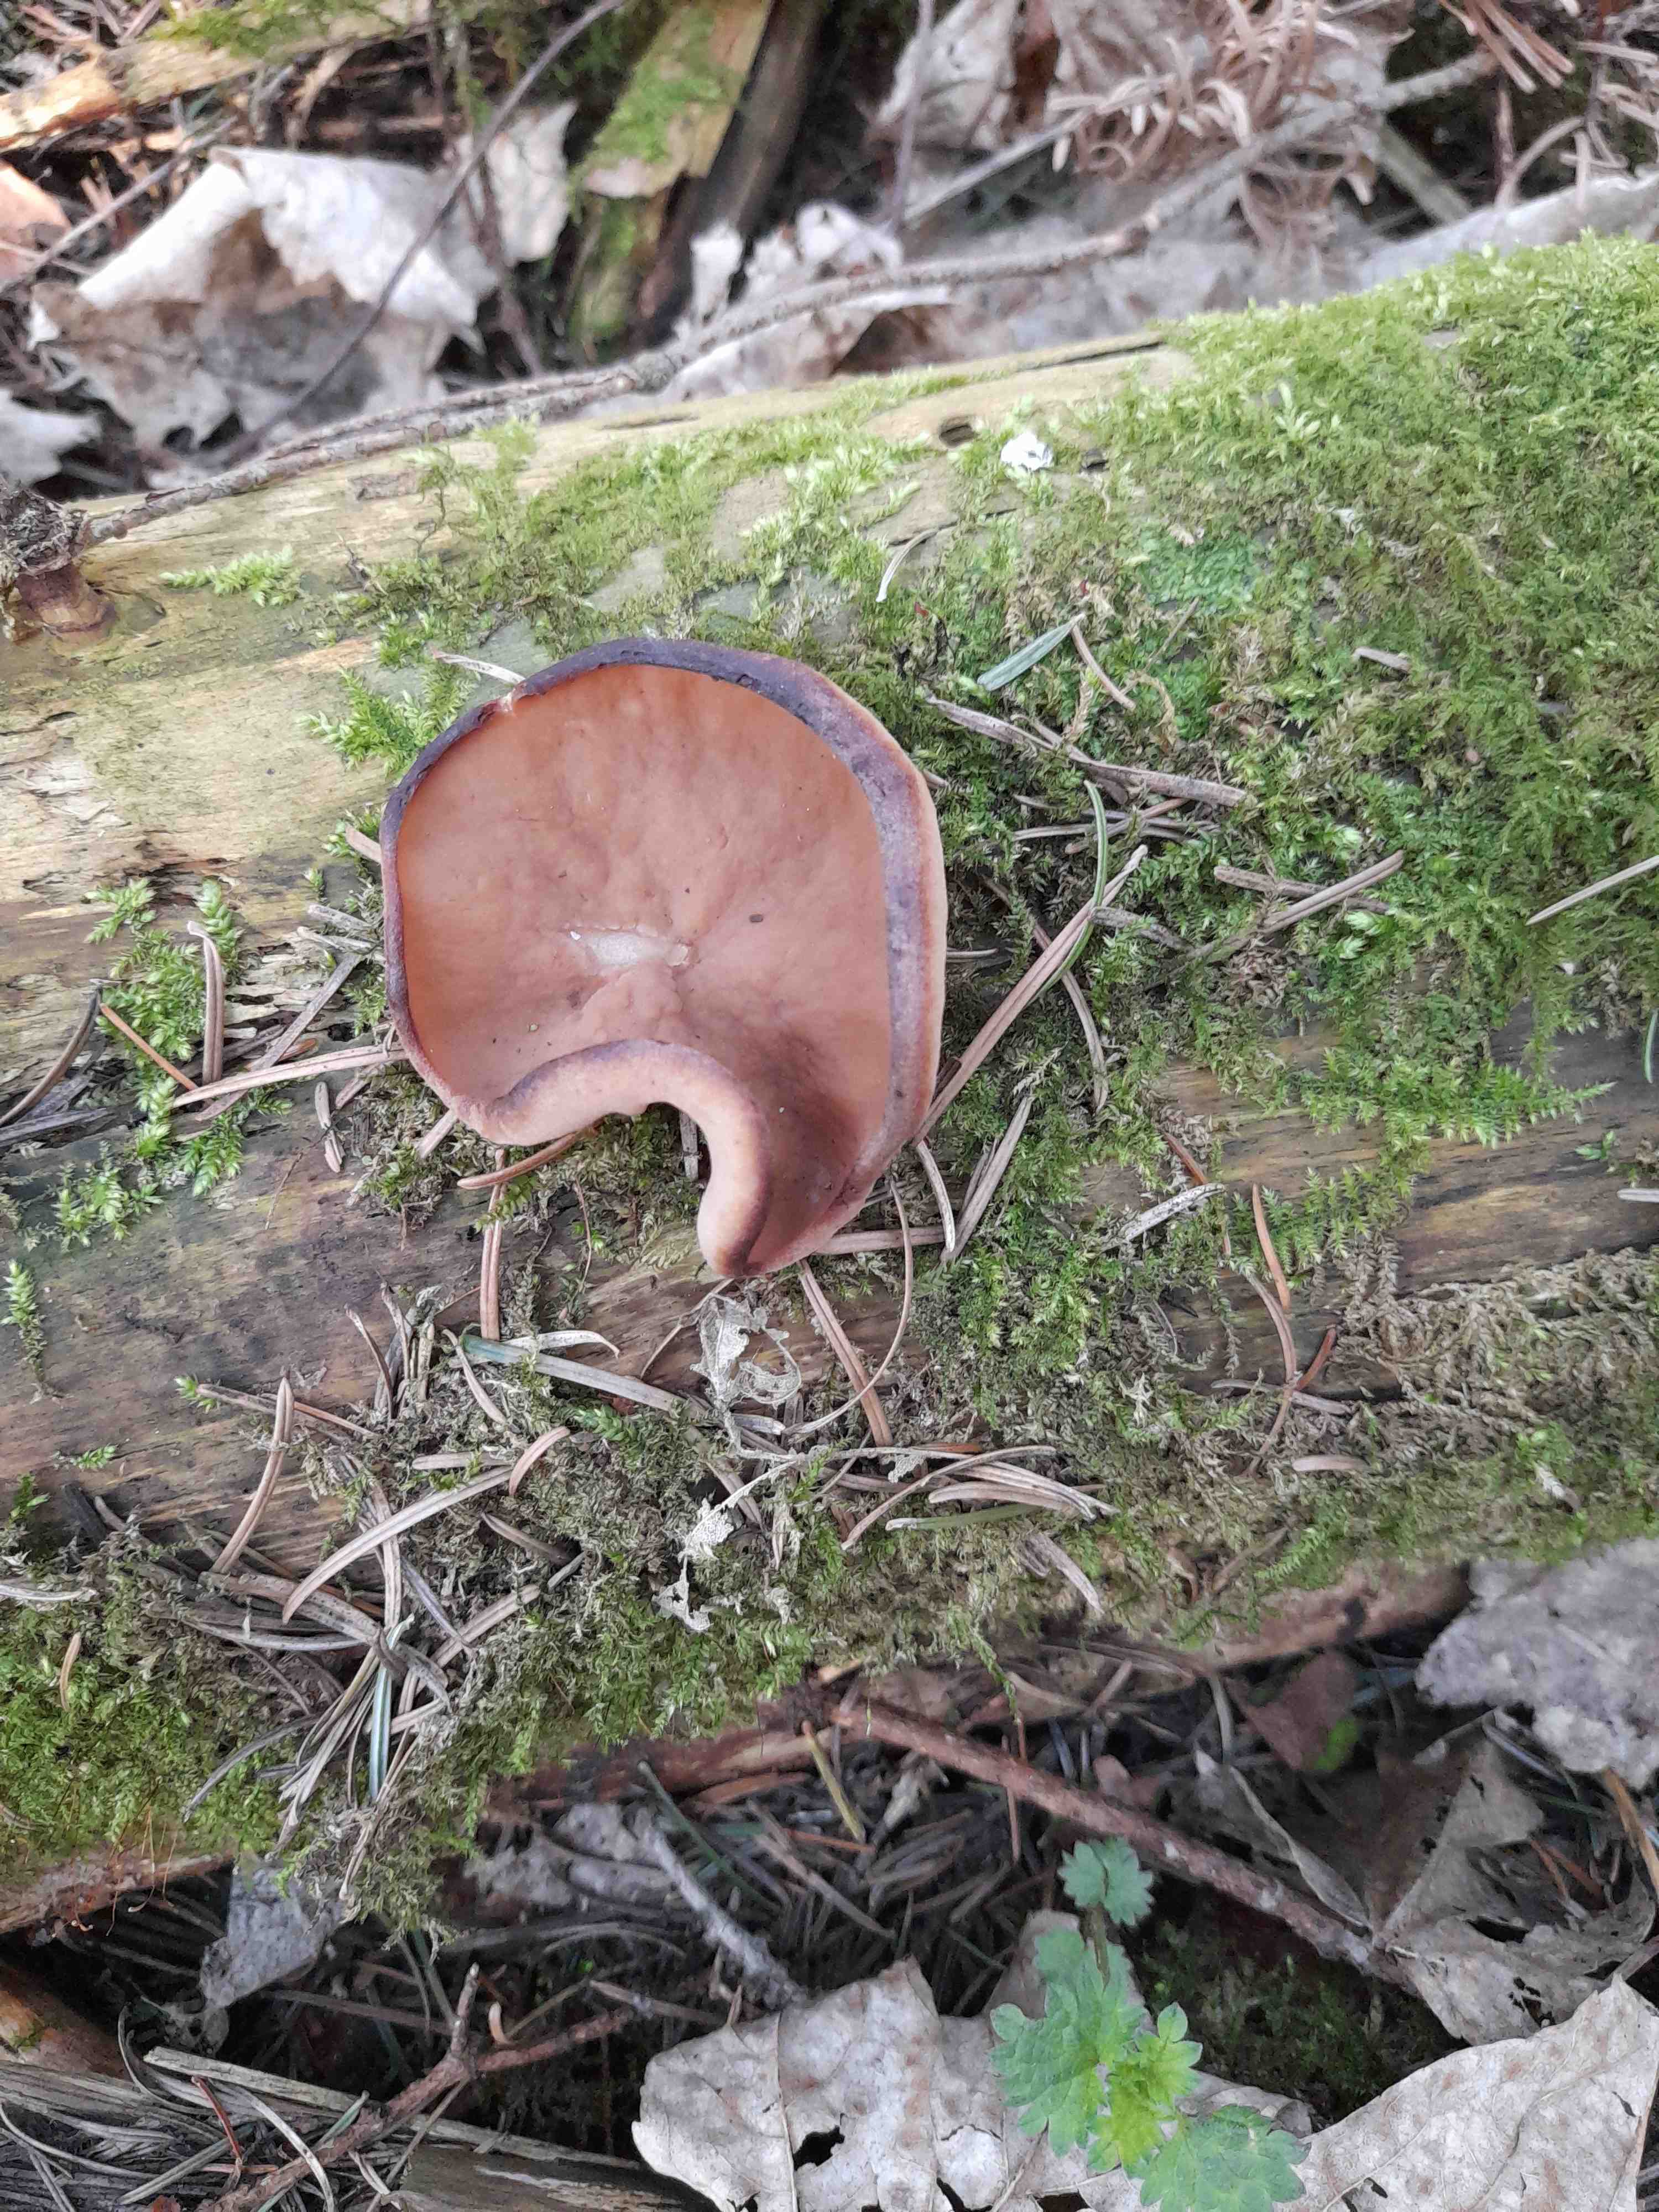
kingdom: Fungi
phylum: Ascomycota
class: Pezizomycetes
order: Pezizales
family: Discinaceae
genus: Discina
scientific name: Discina ancilis
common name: udbredt stenmorkel
